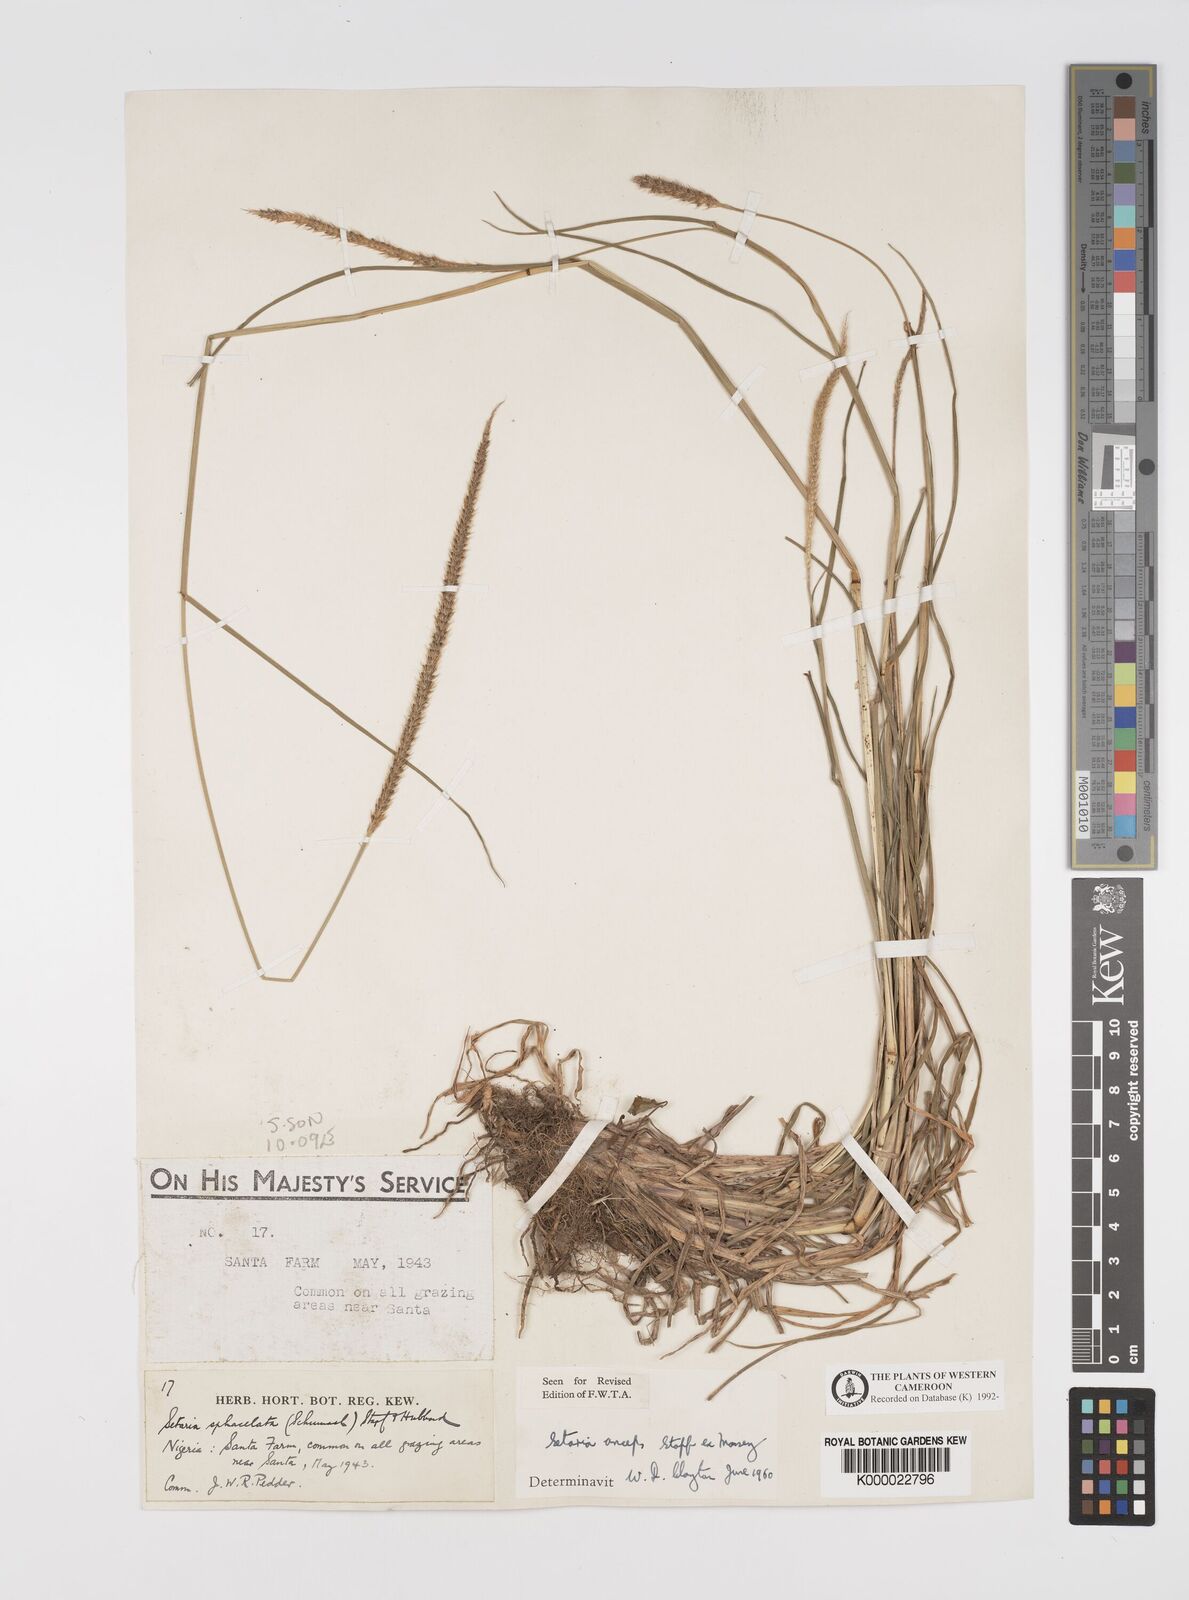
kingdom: Plantae
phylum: Tracheophyta
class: Liliopsida
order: Poales
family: Poaceae
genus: Setaria
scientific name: Setaria sphacelata
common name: African bristlegrass
